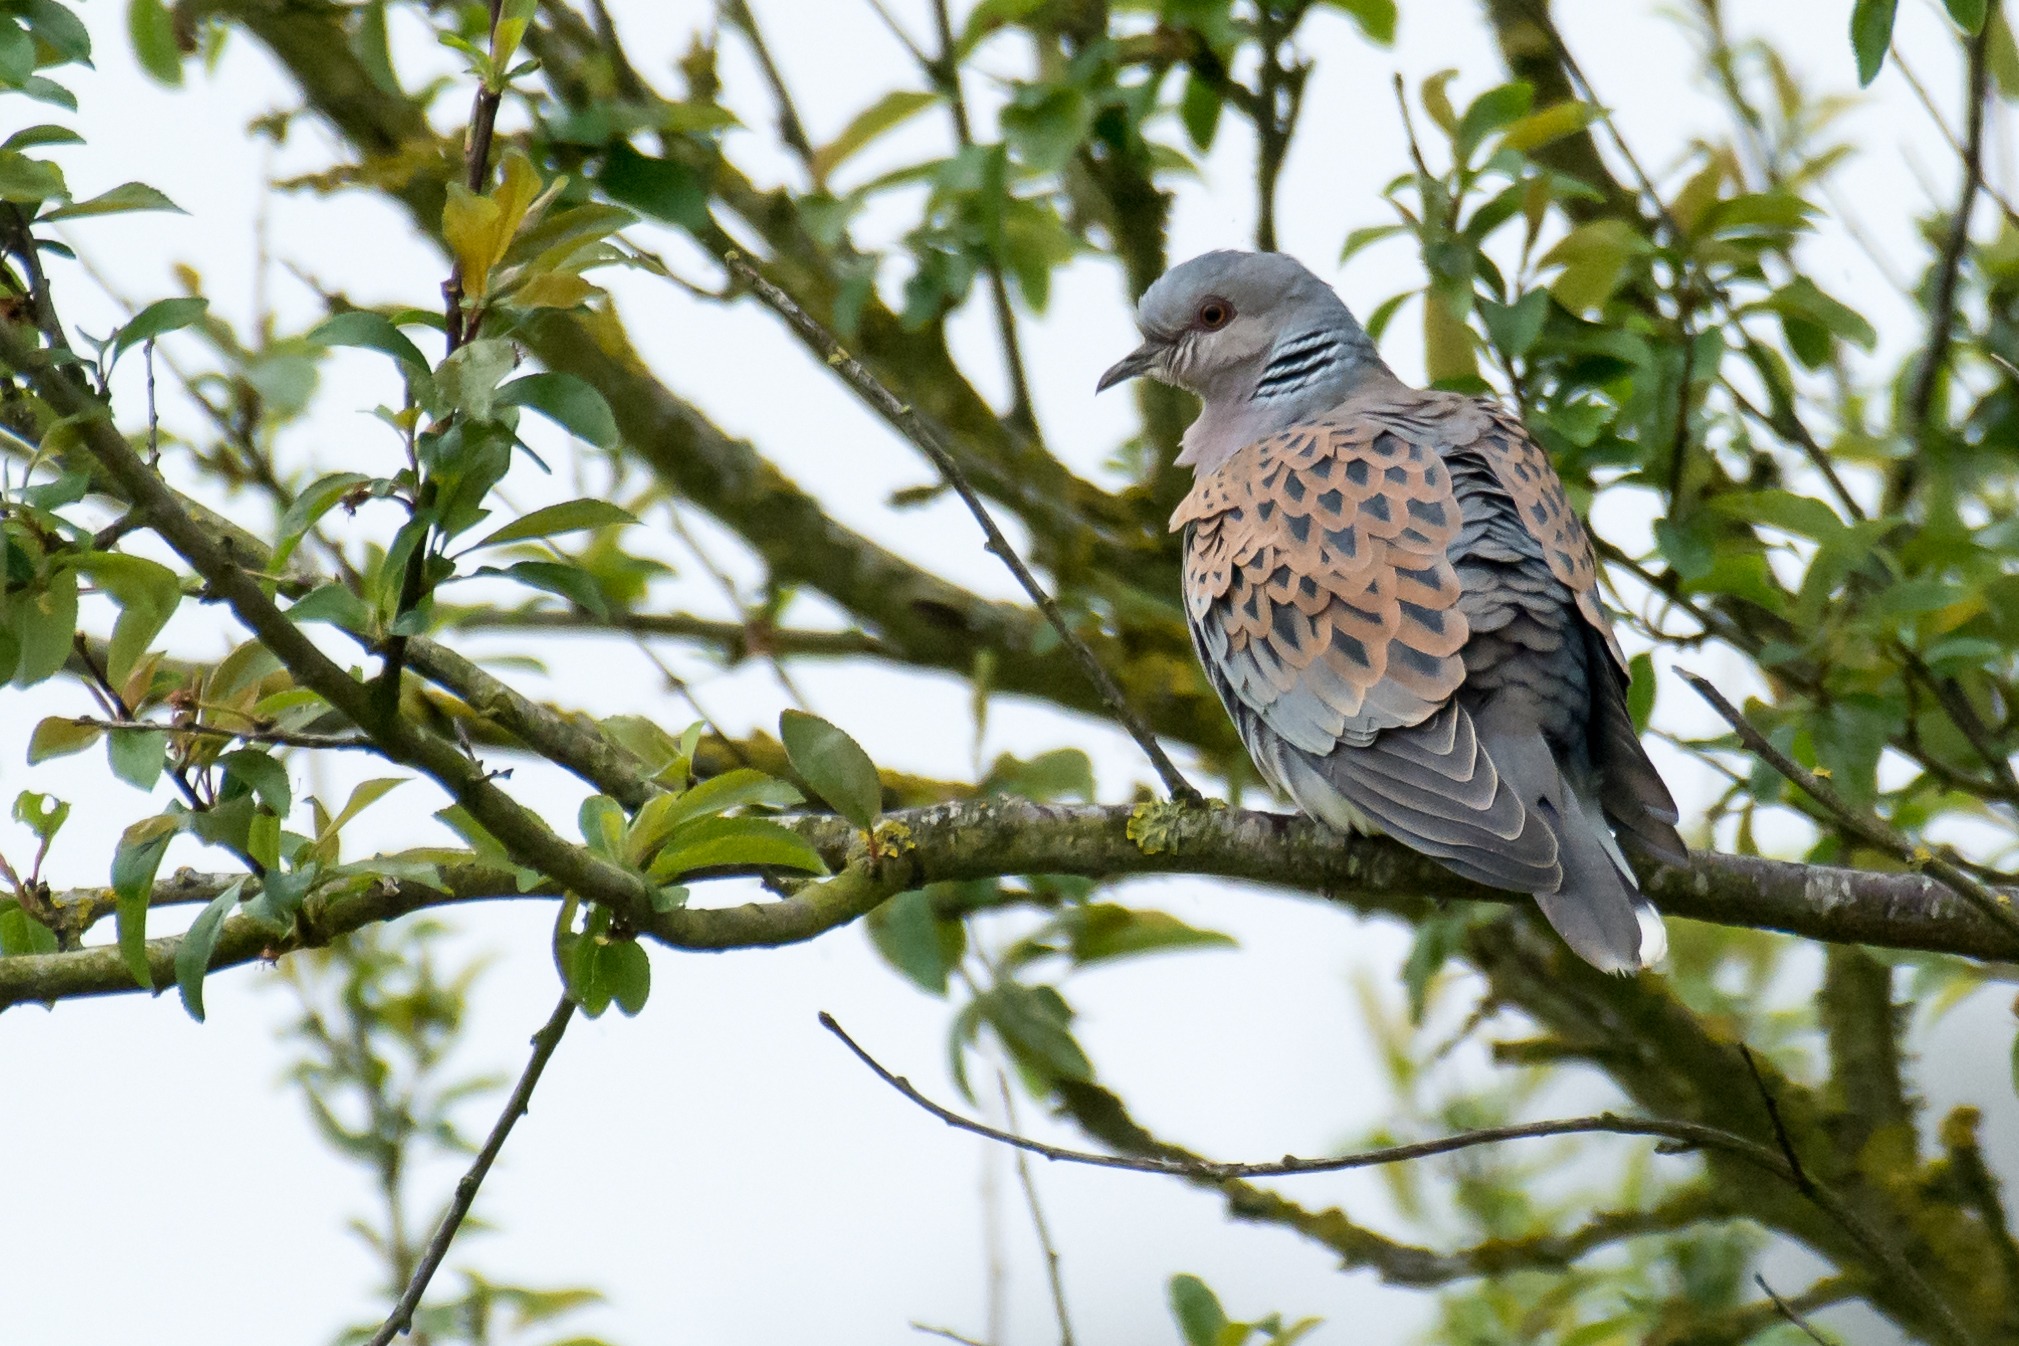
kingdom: Animalia
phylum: Chordata
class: Aves
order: Columbiformes
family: Columbidae
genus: Streptopelia
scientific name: Streptopelia turtur
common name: Turteldue
